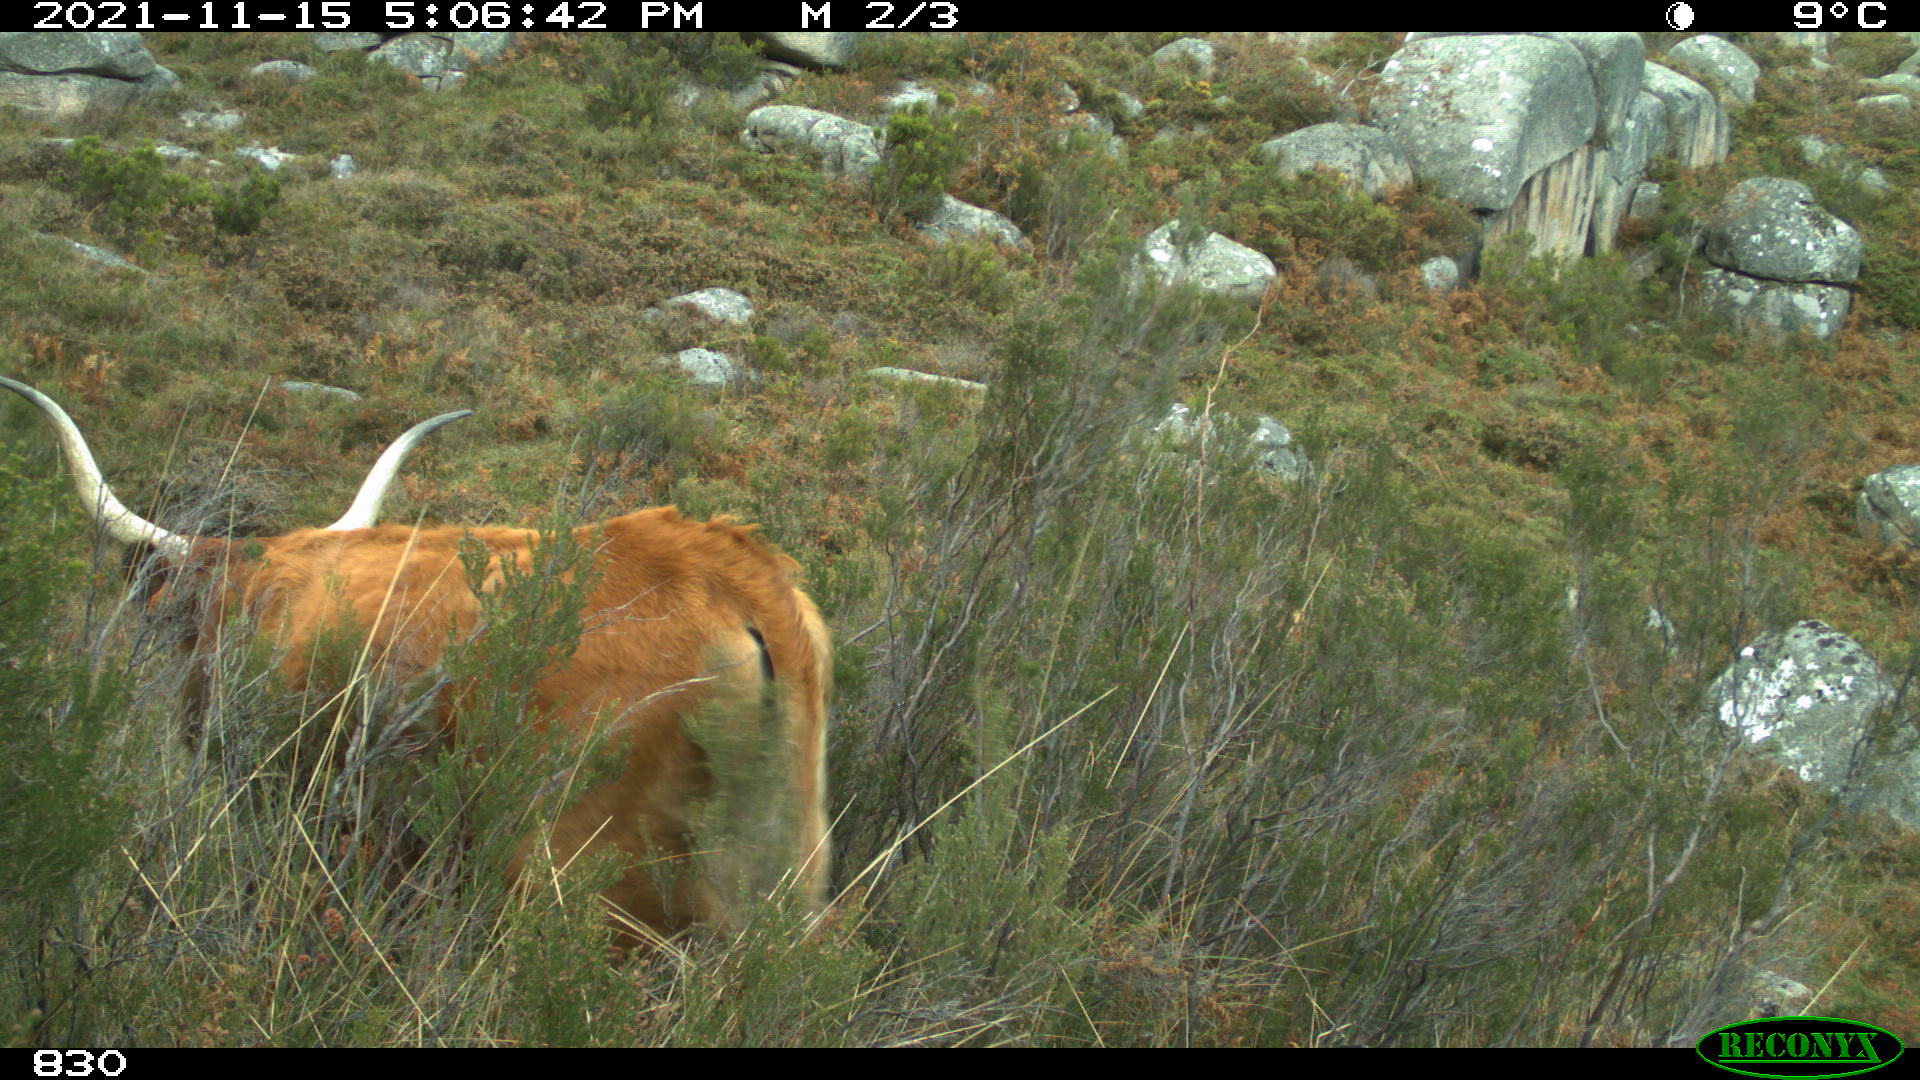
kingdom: Animalia
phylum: Chordata
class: Mammalia
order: Artiodactyla
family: Bovidae
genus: Bos
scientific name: Bos taurus
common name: Domesticated cattle
